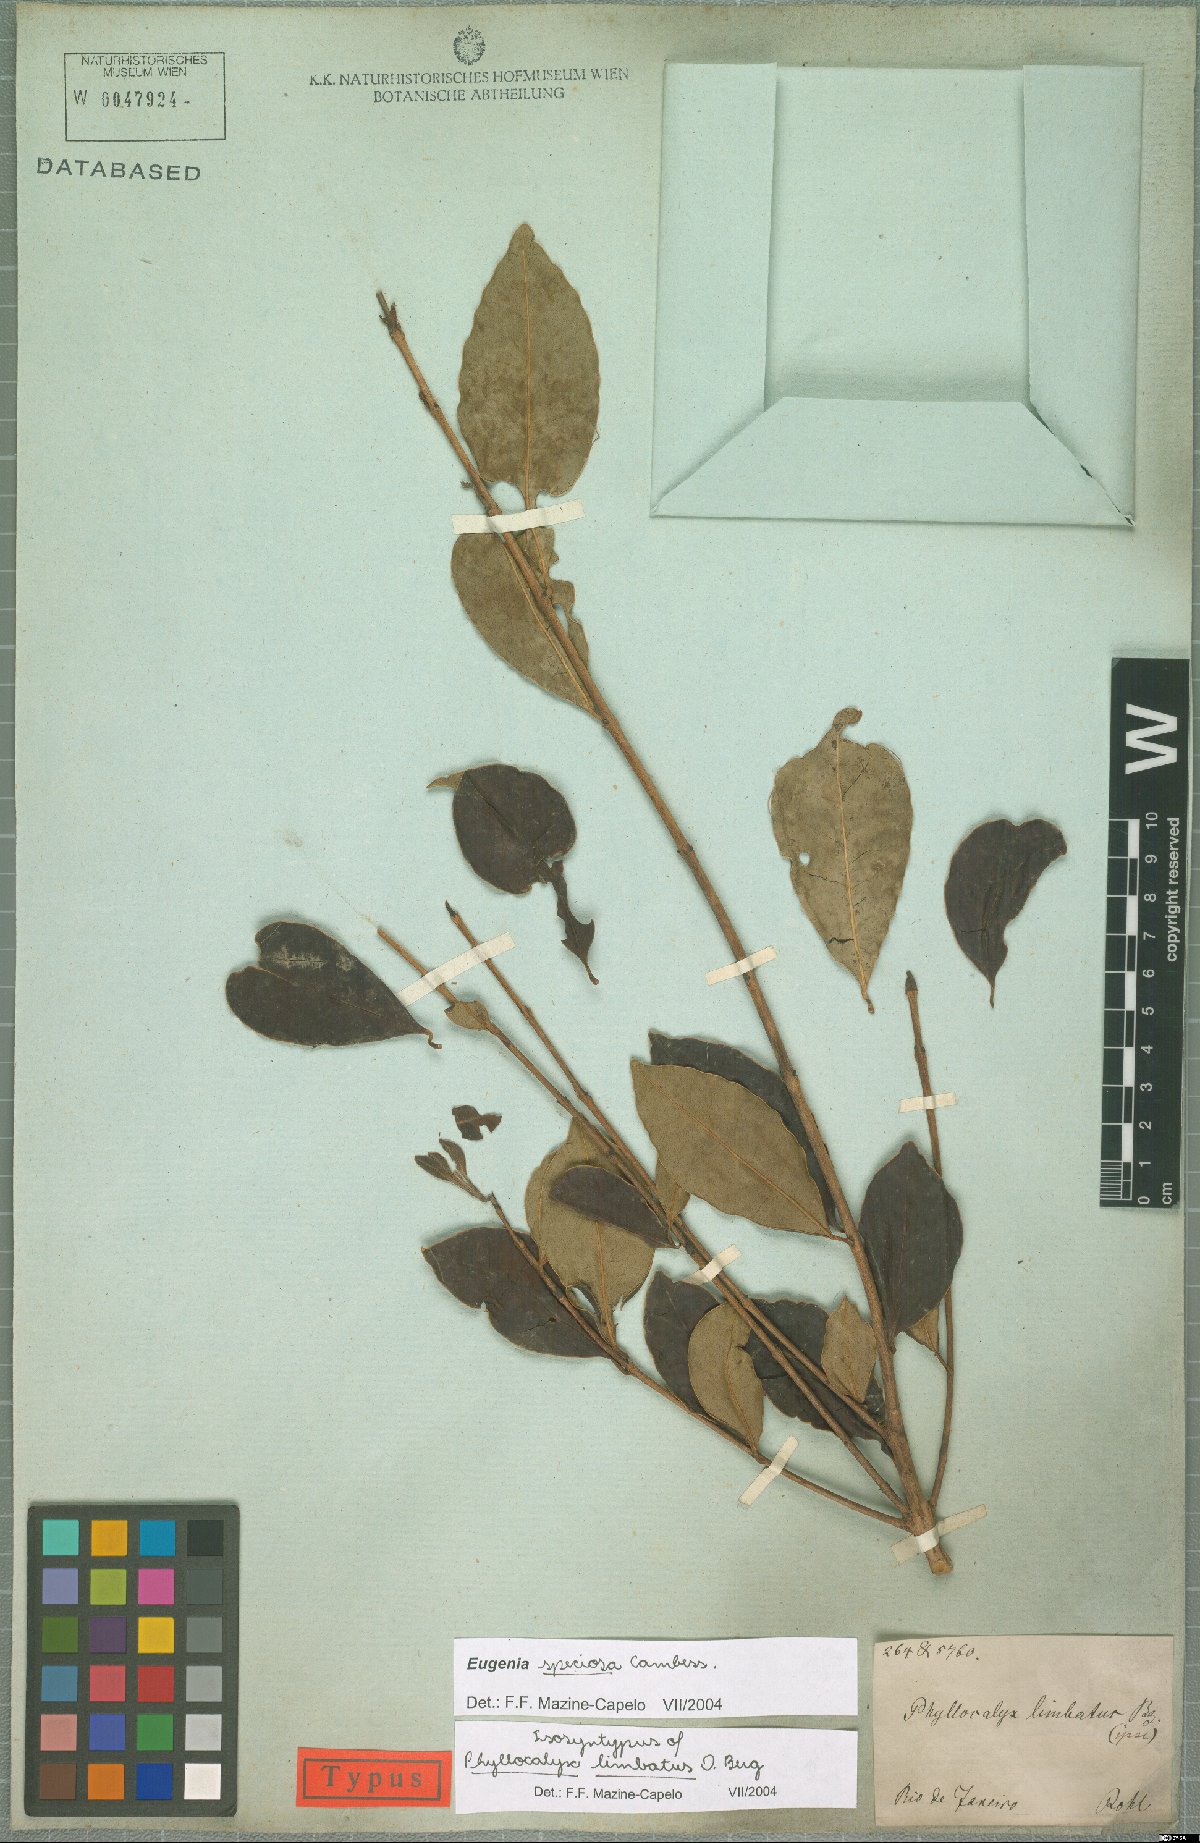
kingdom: Plantae
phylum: Tracheophyta
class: Magnoliopsida
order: Myrtales
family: Myrtaceae
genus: Eugenia
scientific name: Eugenia speciosa
